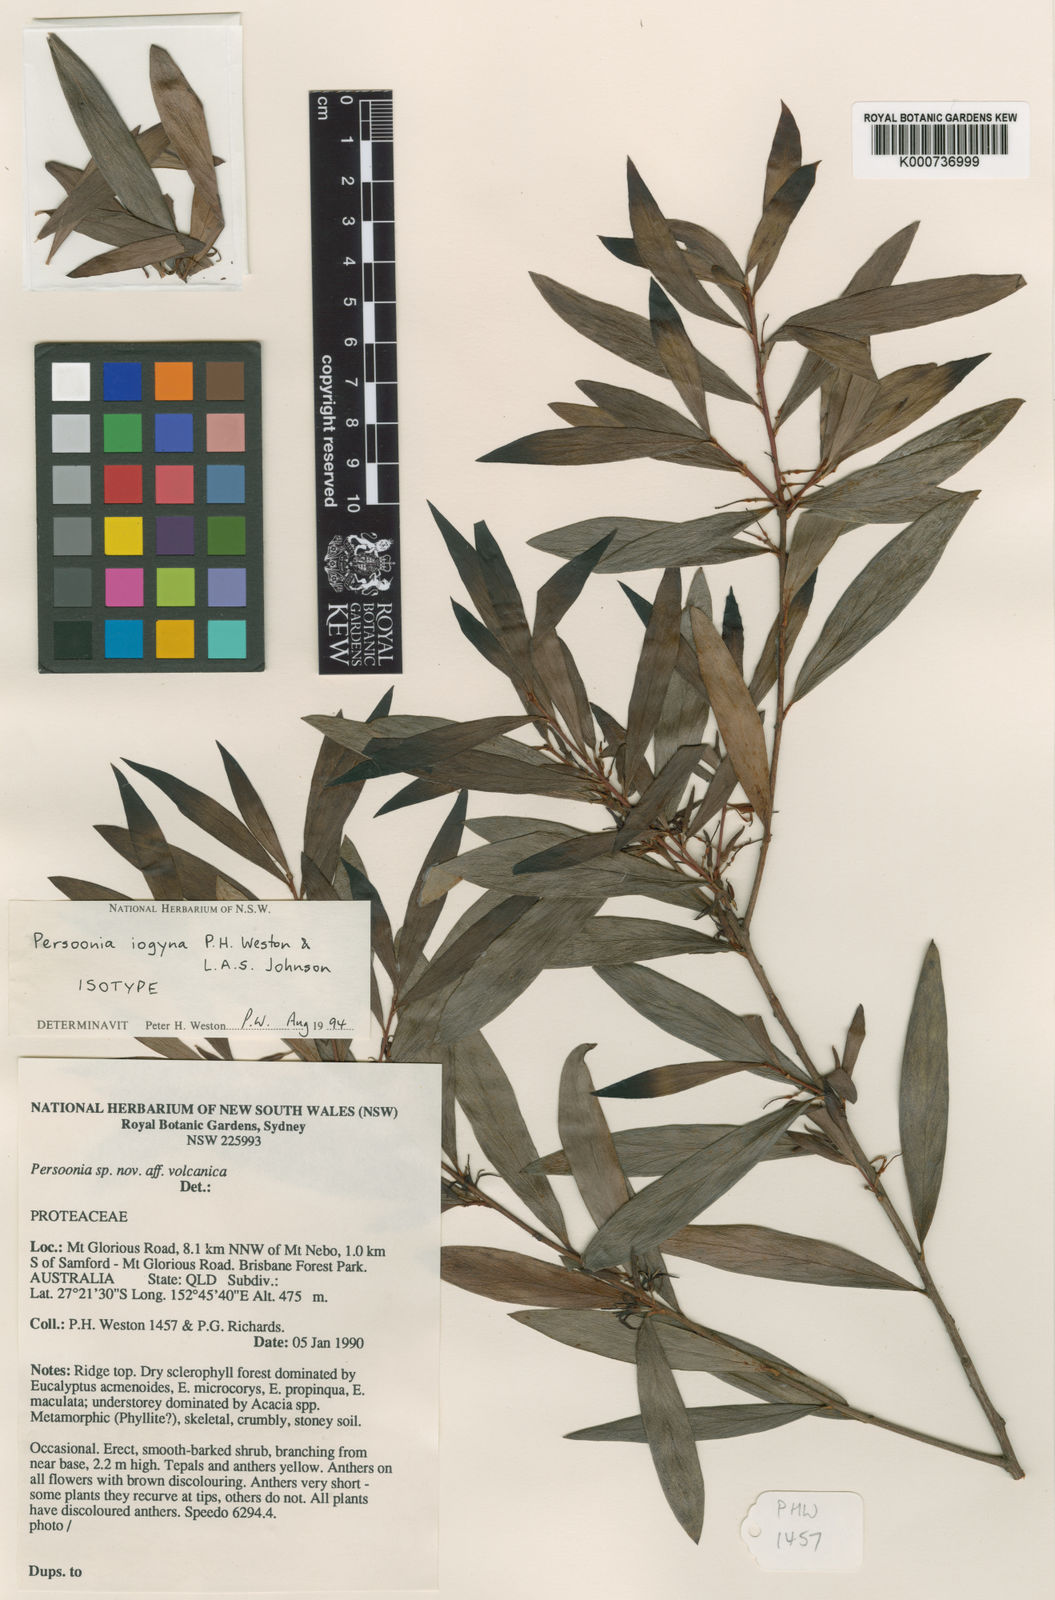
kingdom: Plantae
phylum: Tracheophyta
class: Magnoliopsida
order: Proteales
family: Proteaceae
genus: Persoonia
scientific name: Persoonia iogyna
